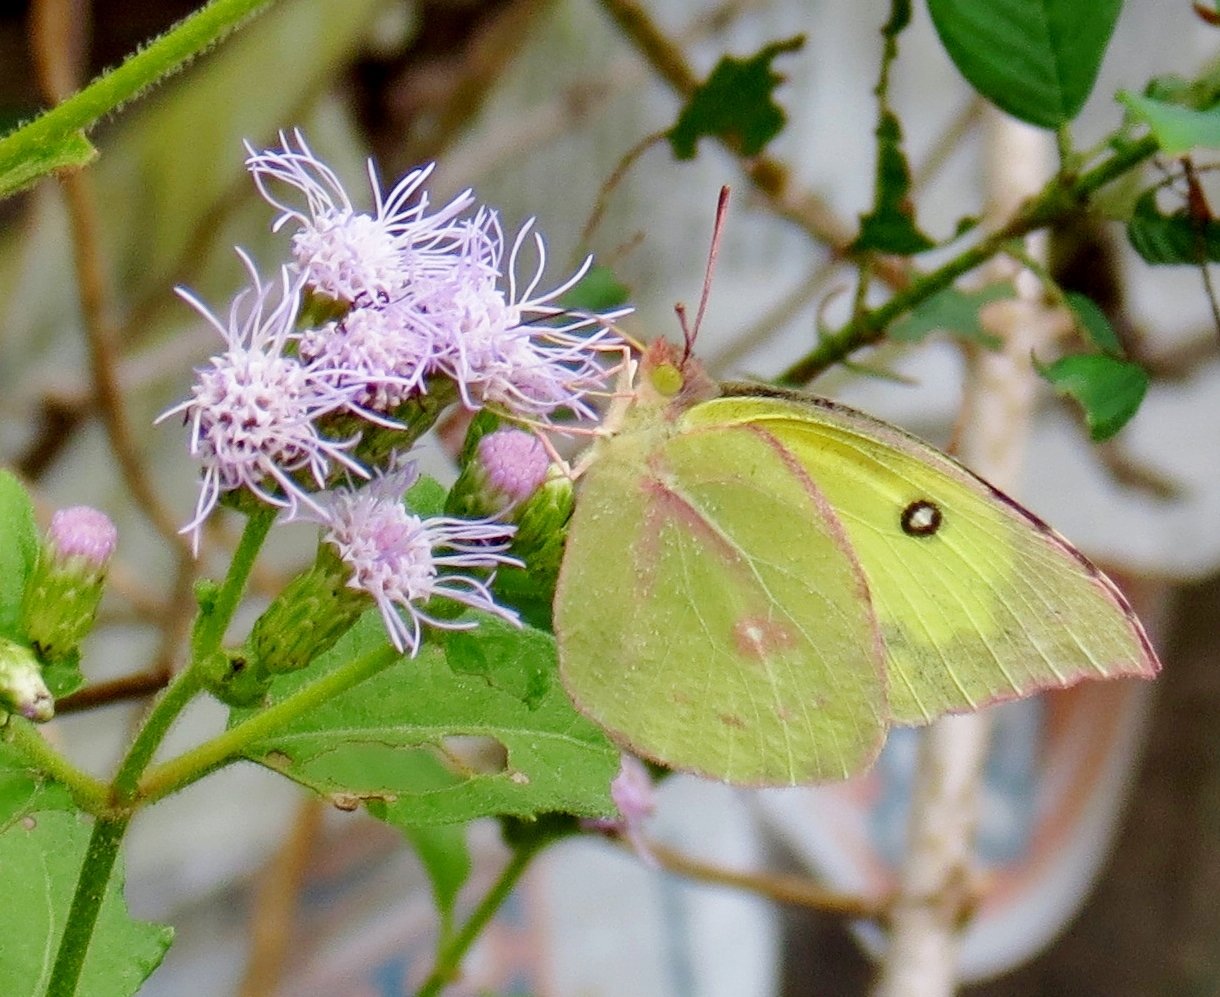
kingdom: Animalia
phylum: Arthropoda
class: Insecta
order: Lepidoptera
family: Pieridae
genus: Zerene
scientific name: Zerene cesonia
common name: Southern Dogface
